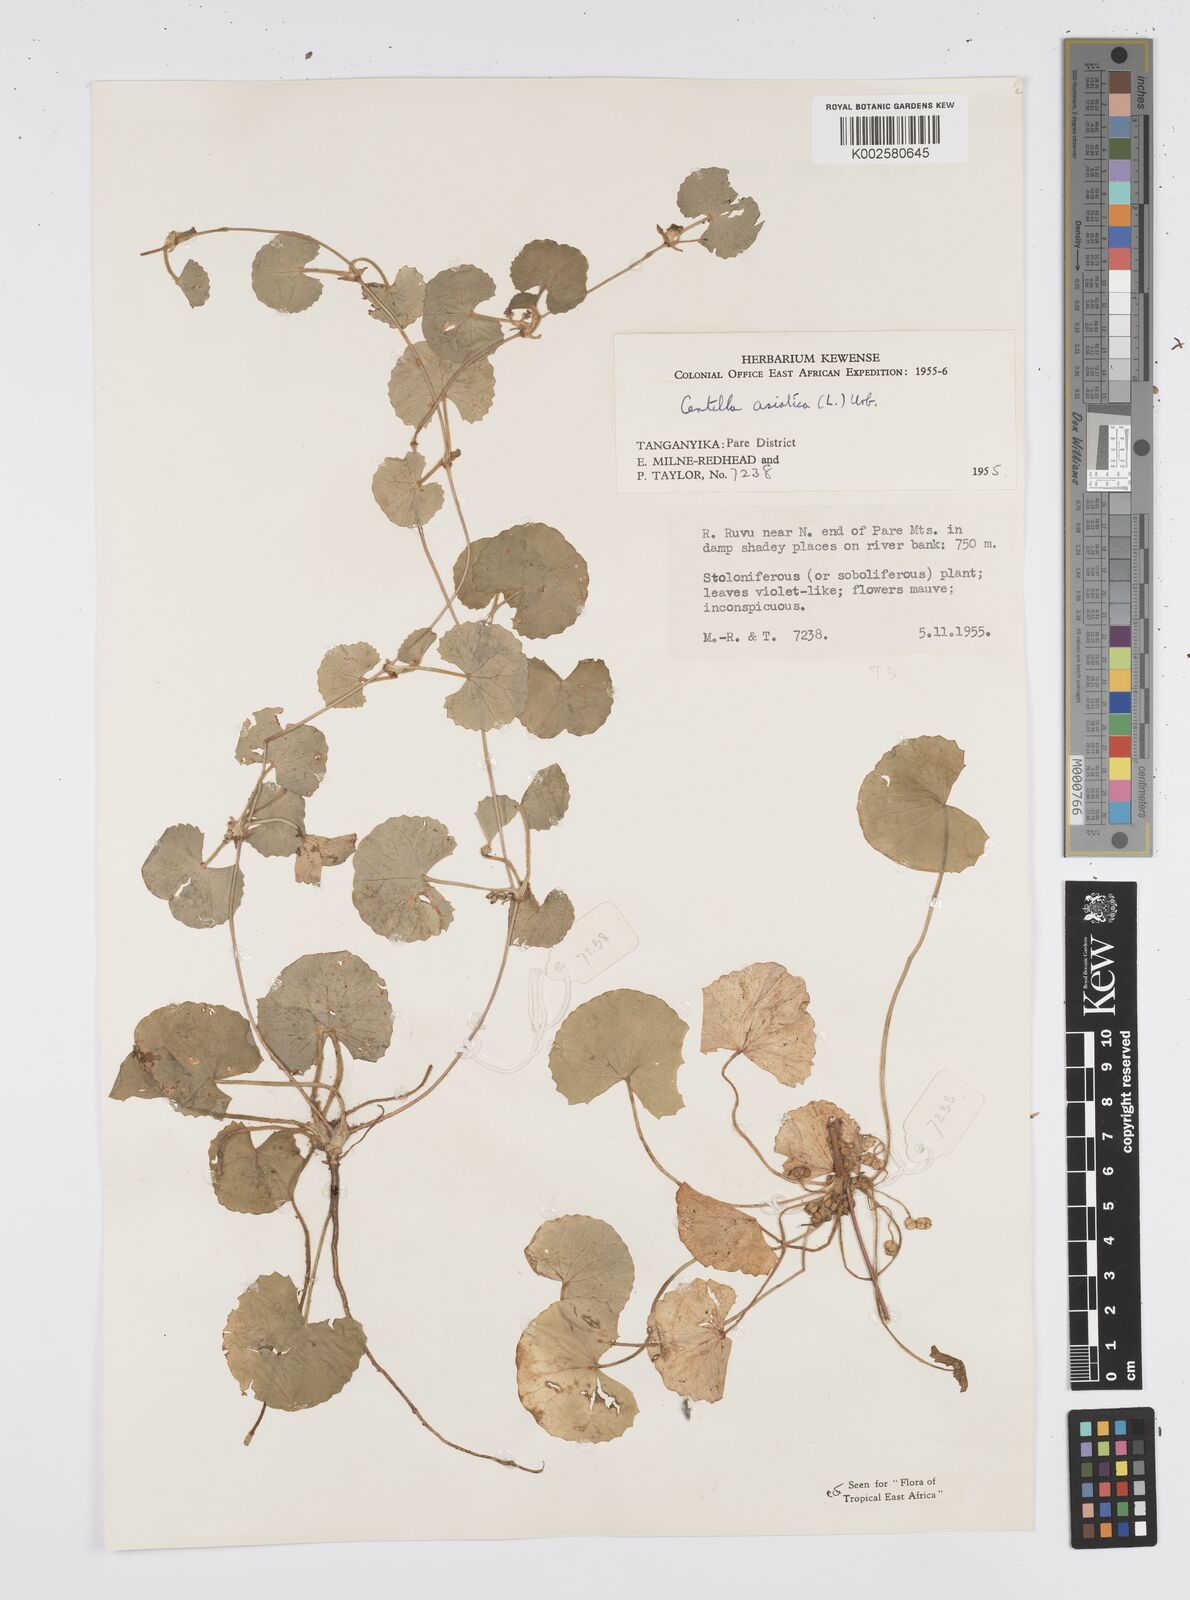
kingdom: Plantae
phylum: Tracheophyta
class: Magnoliopsida
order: Apiales
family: Apiaceae
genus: Centella
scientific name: Centella asiatica
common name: Spadeleaf
